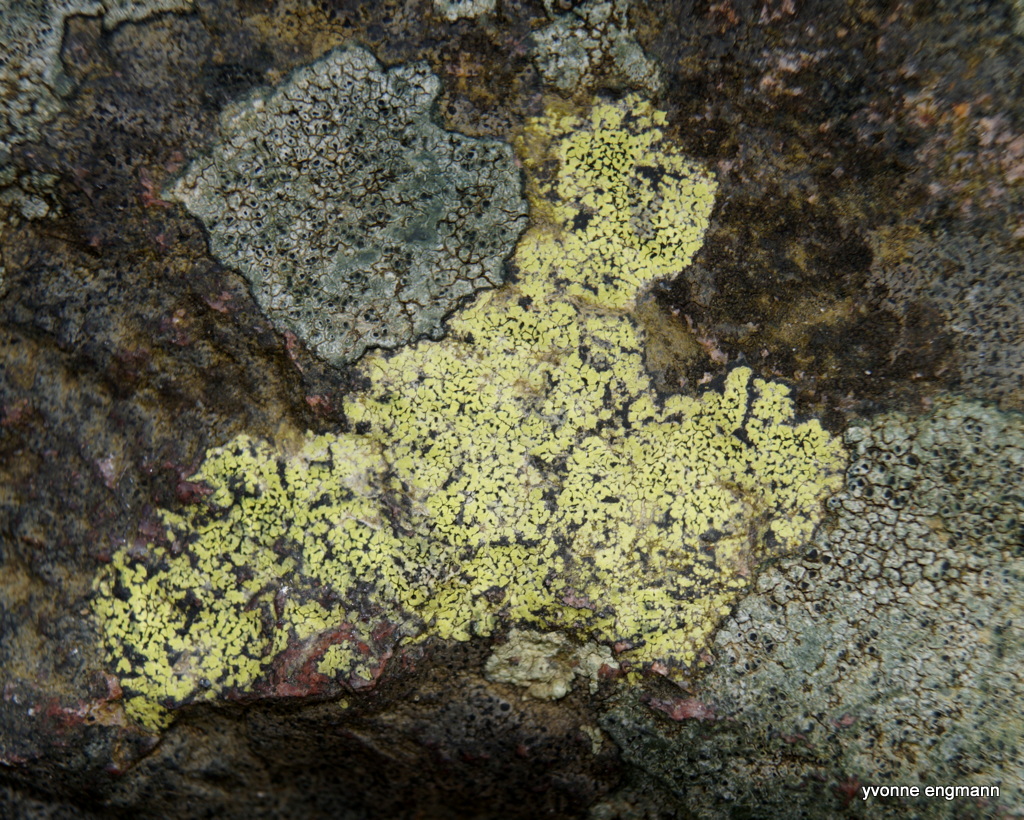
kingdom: Fungi
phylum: Ascomycota
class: Lecanoromycetes
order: Rhizocarpales
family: Rhizocarpaceae
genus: Rhizocarpon
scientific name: Rhizocarpon geographicum
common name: gulgrøn landkortlav
